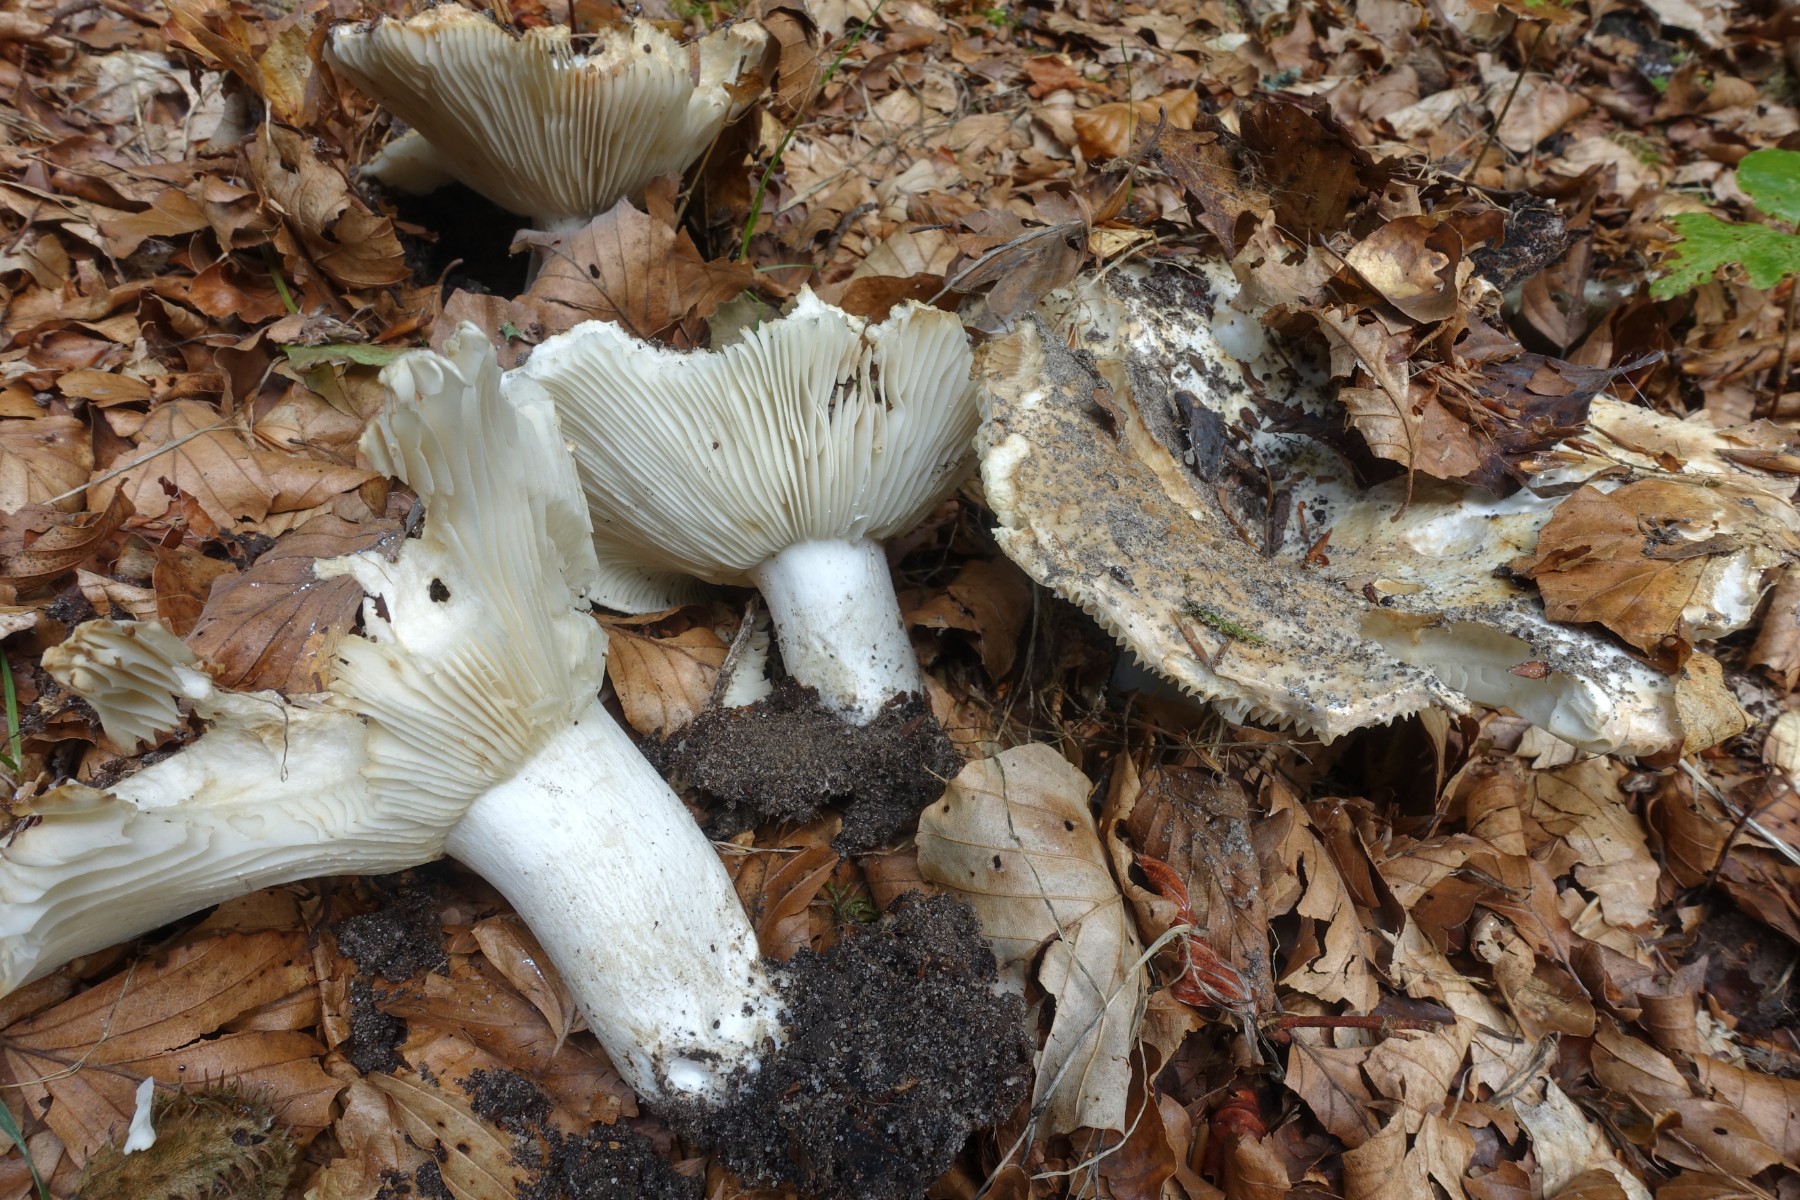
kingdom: Fungi
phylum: Basidiomycota
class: Agaricomycetes
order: Russulales
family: Russulaceae
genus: Russula
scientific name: Russula delica
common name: almindelig tragt-skørhat
